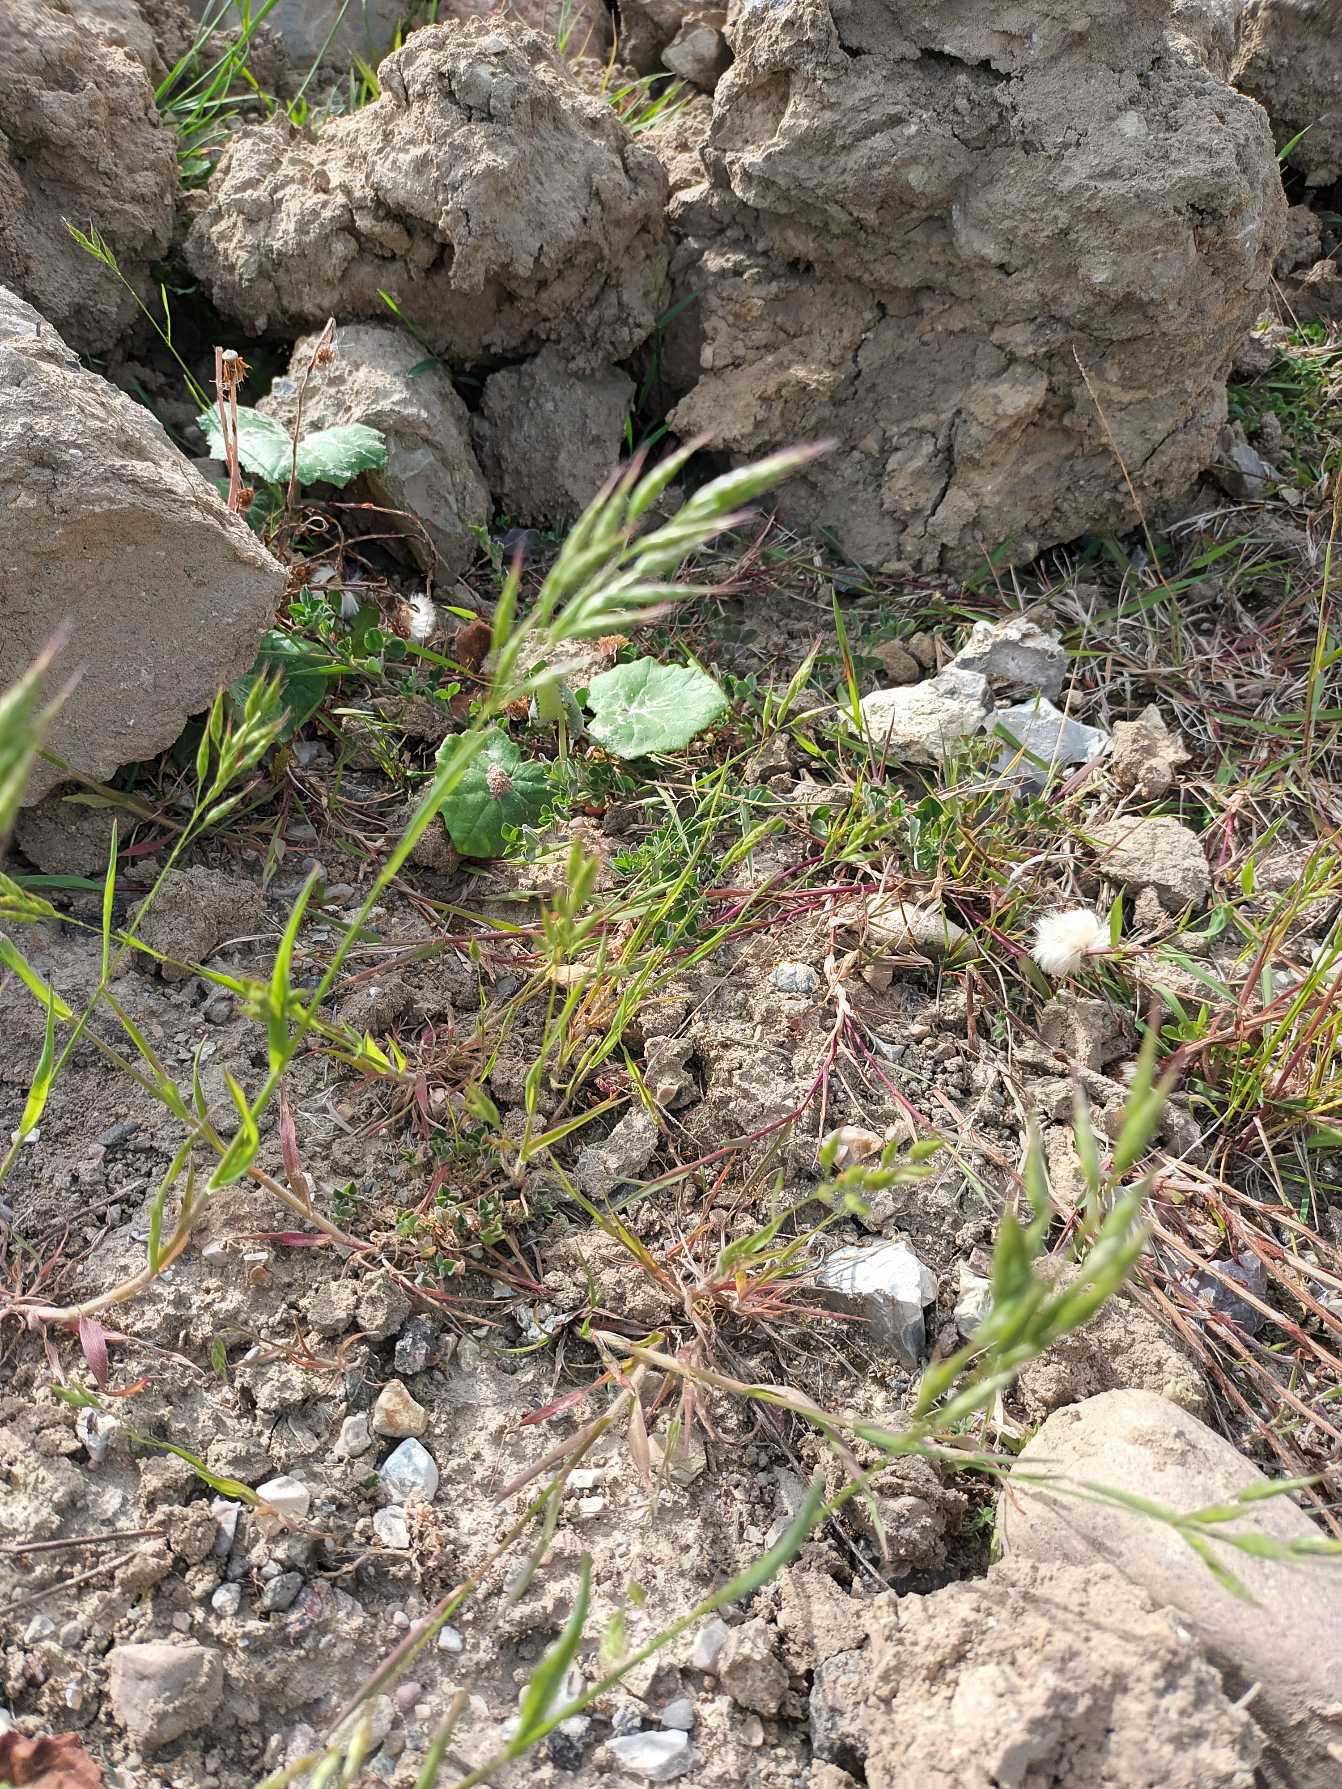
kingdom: Plantae
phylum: Tracheophyta
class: Liliopsida
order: Poales
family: Poaceae
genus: Bromus
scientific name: Bromus hordeaceus
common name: Blød hejre
